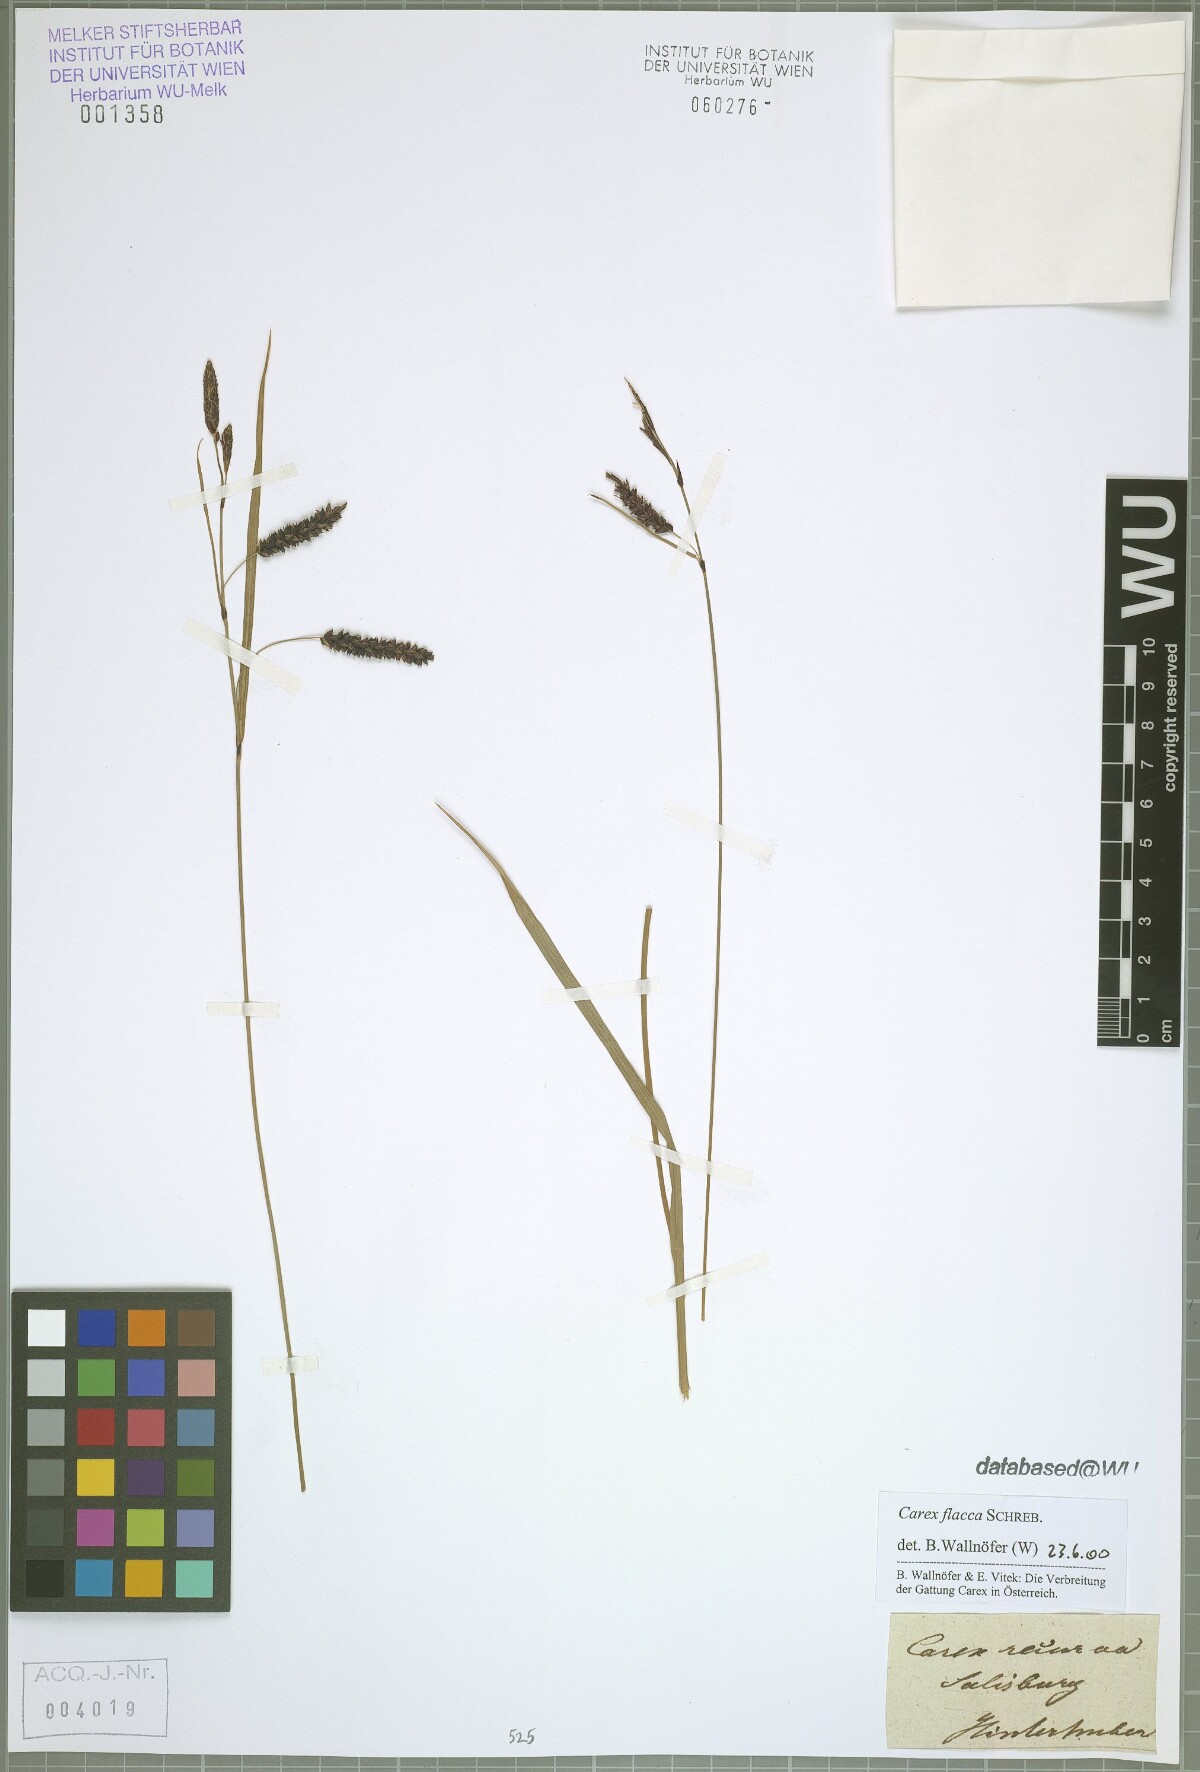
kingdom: Plantae
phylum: Tracheophyta
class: Liliopsida
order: Poales
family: Cyperaceae
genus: Carex
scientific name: Carex flacca
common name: Glaucous sedge
